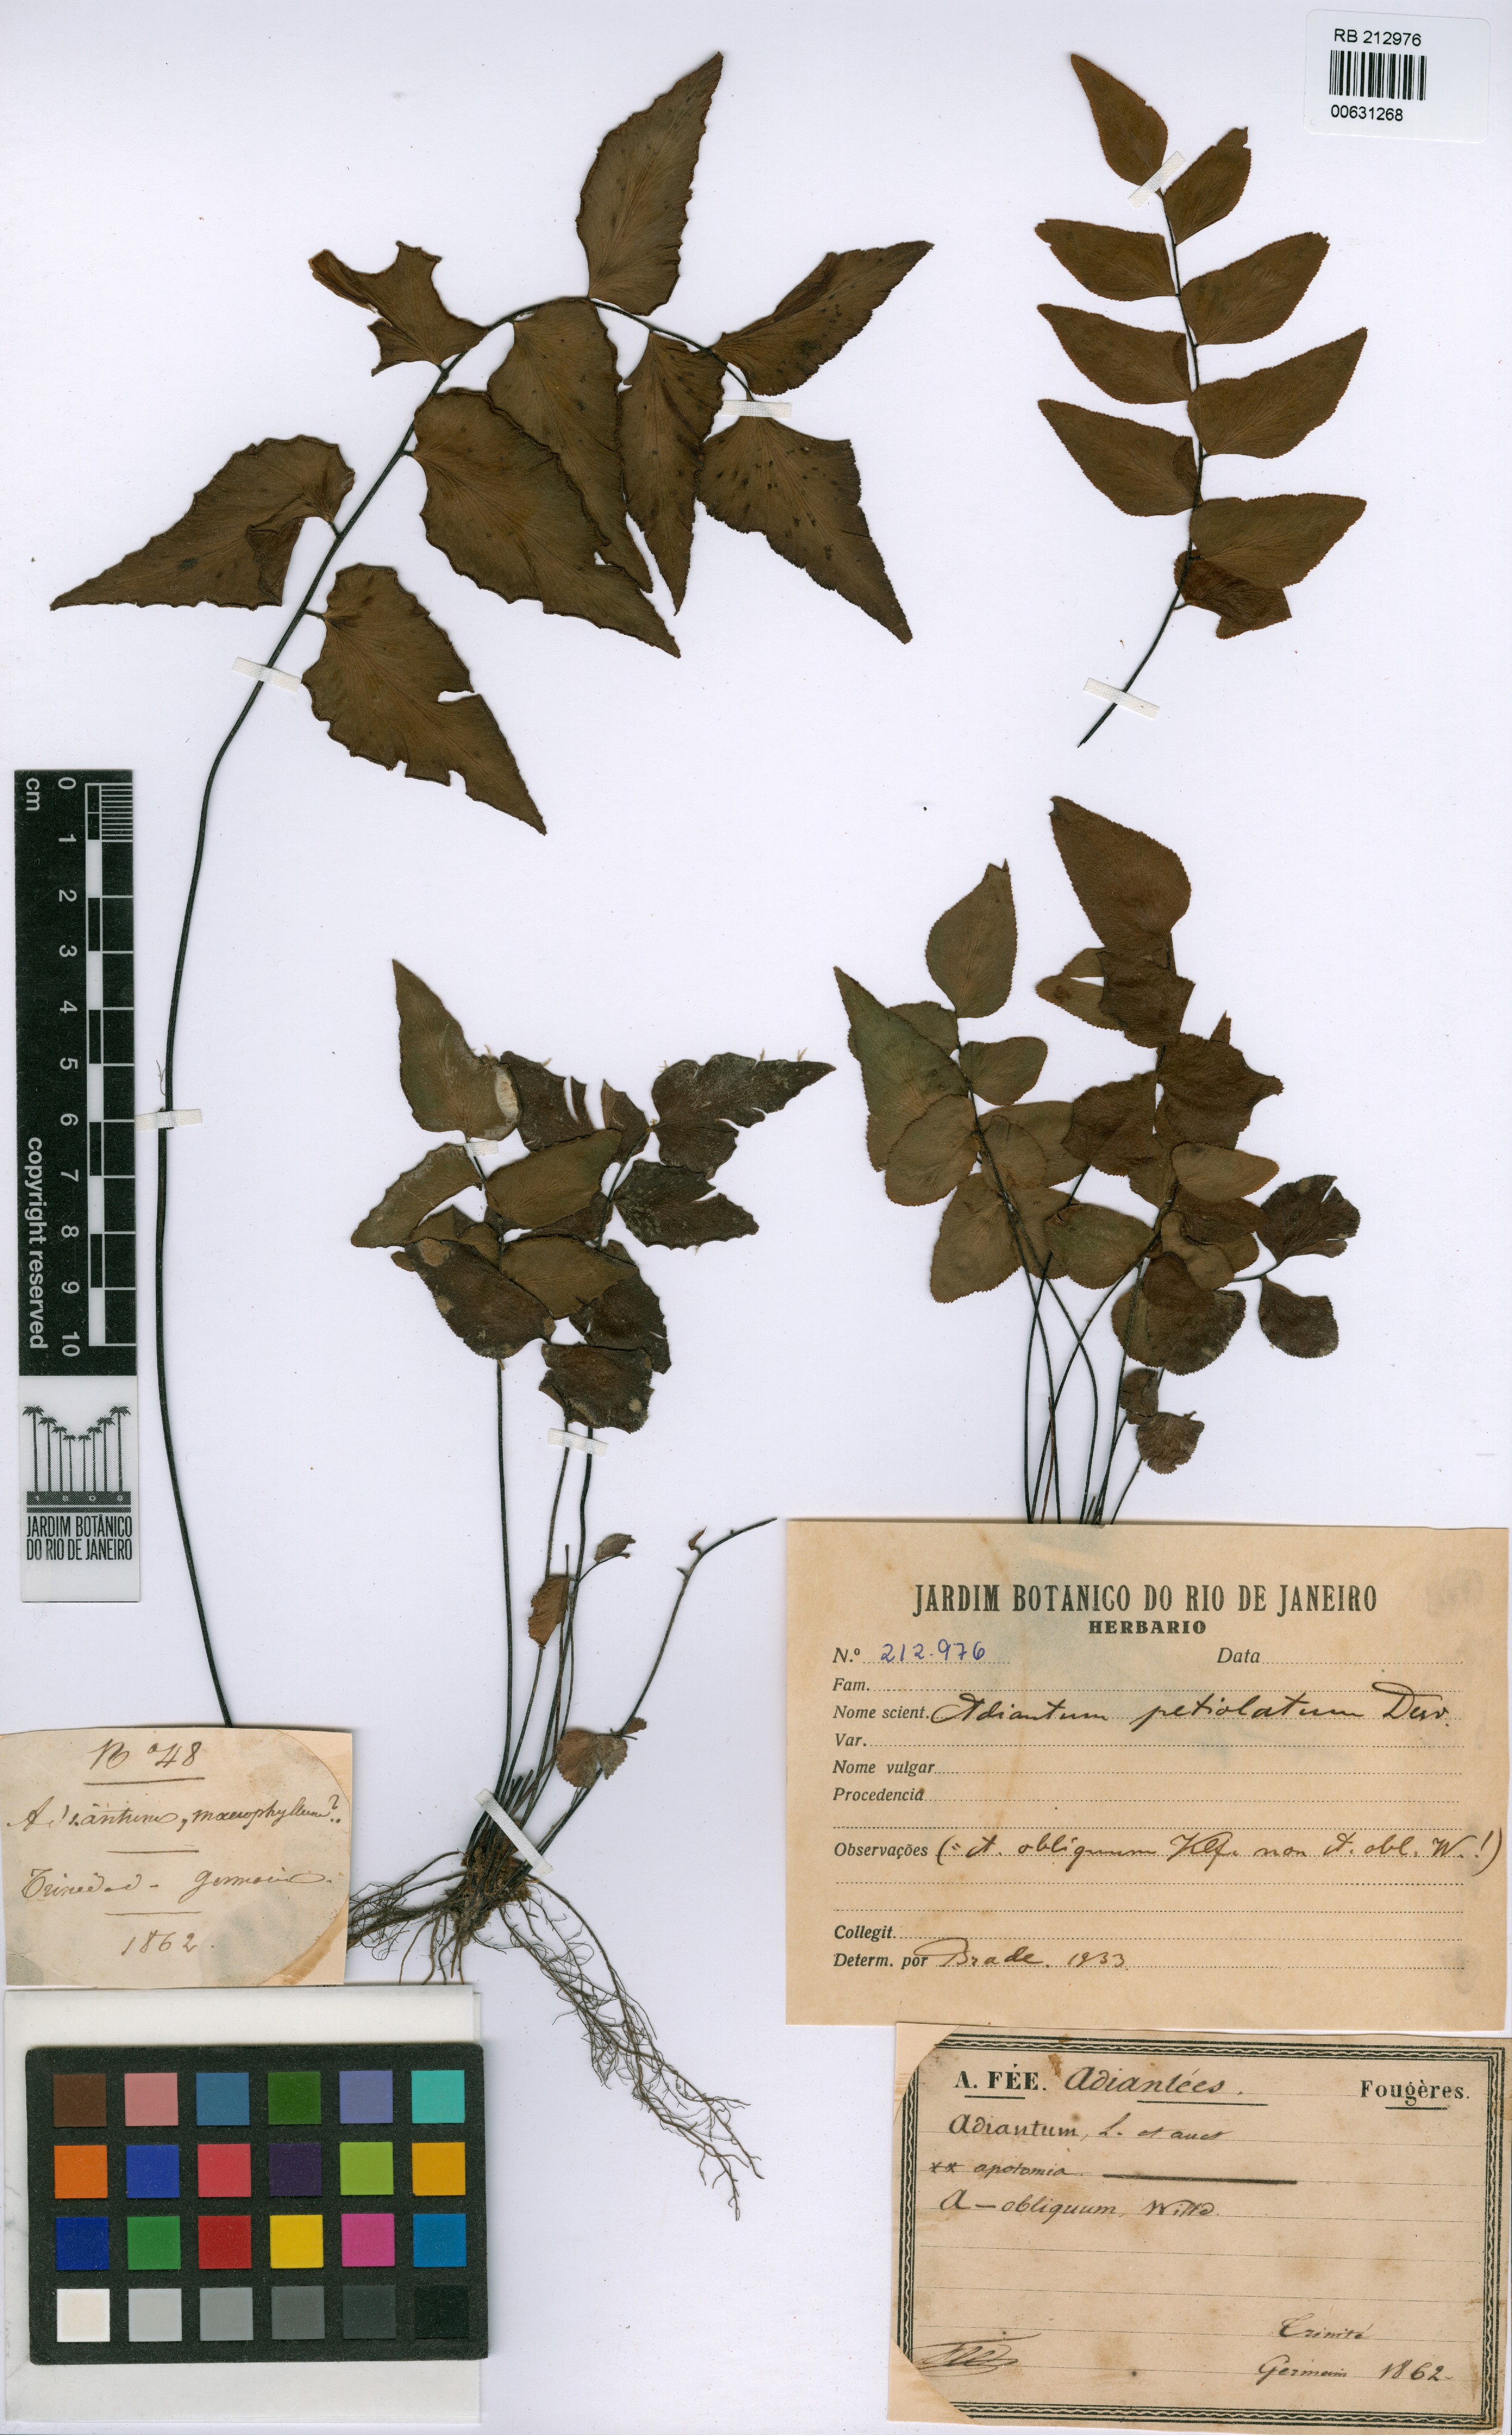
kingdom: Plantae
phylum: Tracheophyta
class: Polypodiopsida
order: Polypodiales
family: Pteridaceae
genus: Adiantum
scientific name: Adiantum petiolatum
